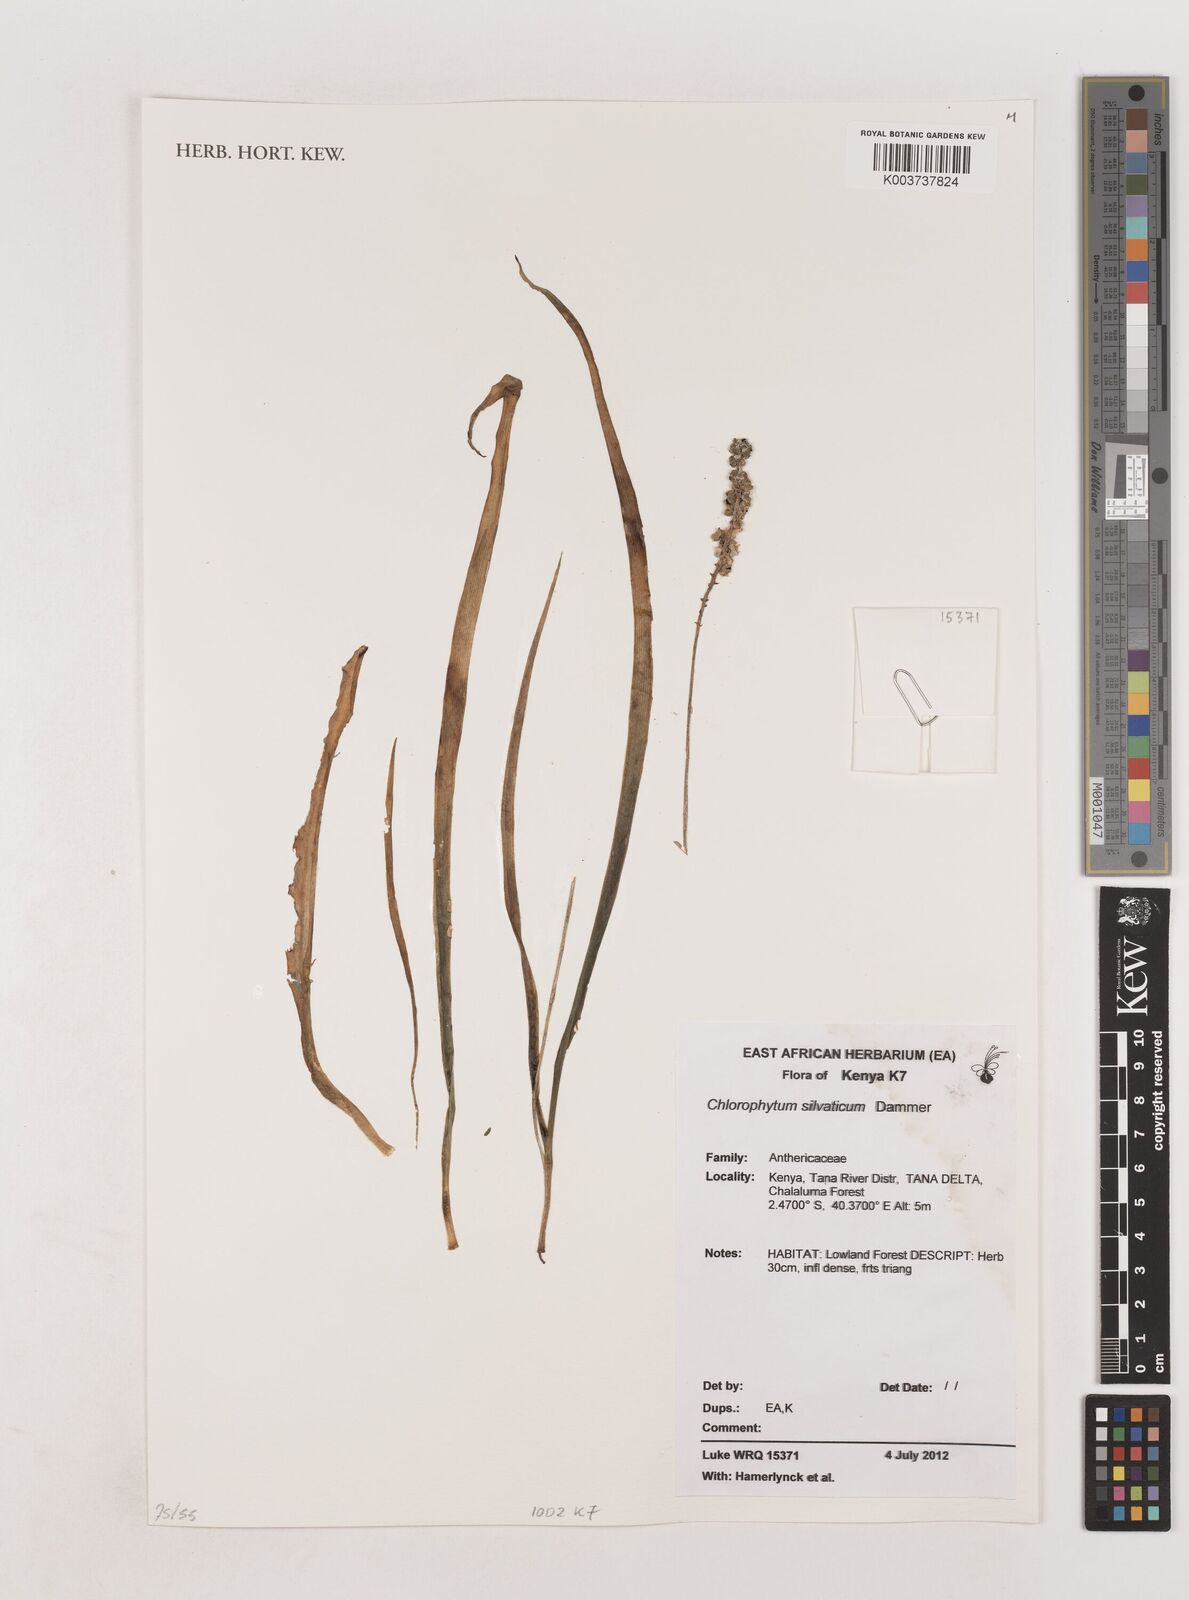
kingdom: Plantae
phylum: Tracheophyta
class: Liliopsida
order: Asparagales
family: Asparagaceae
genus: Chlorophytum
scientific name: Chlorophytum africanum
